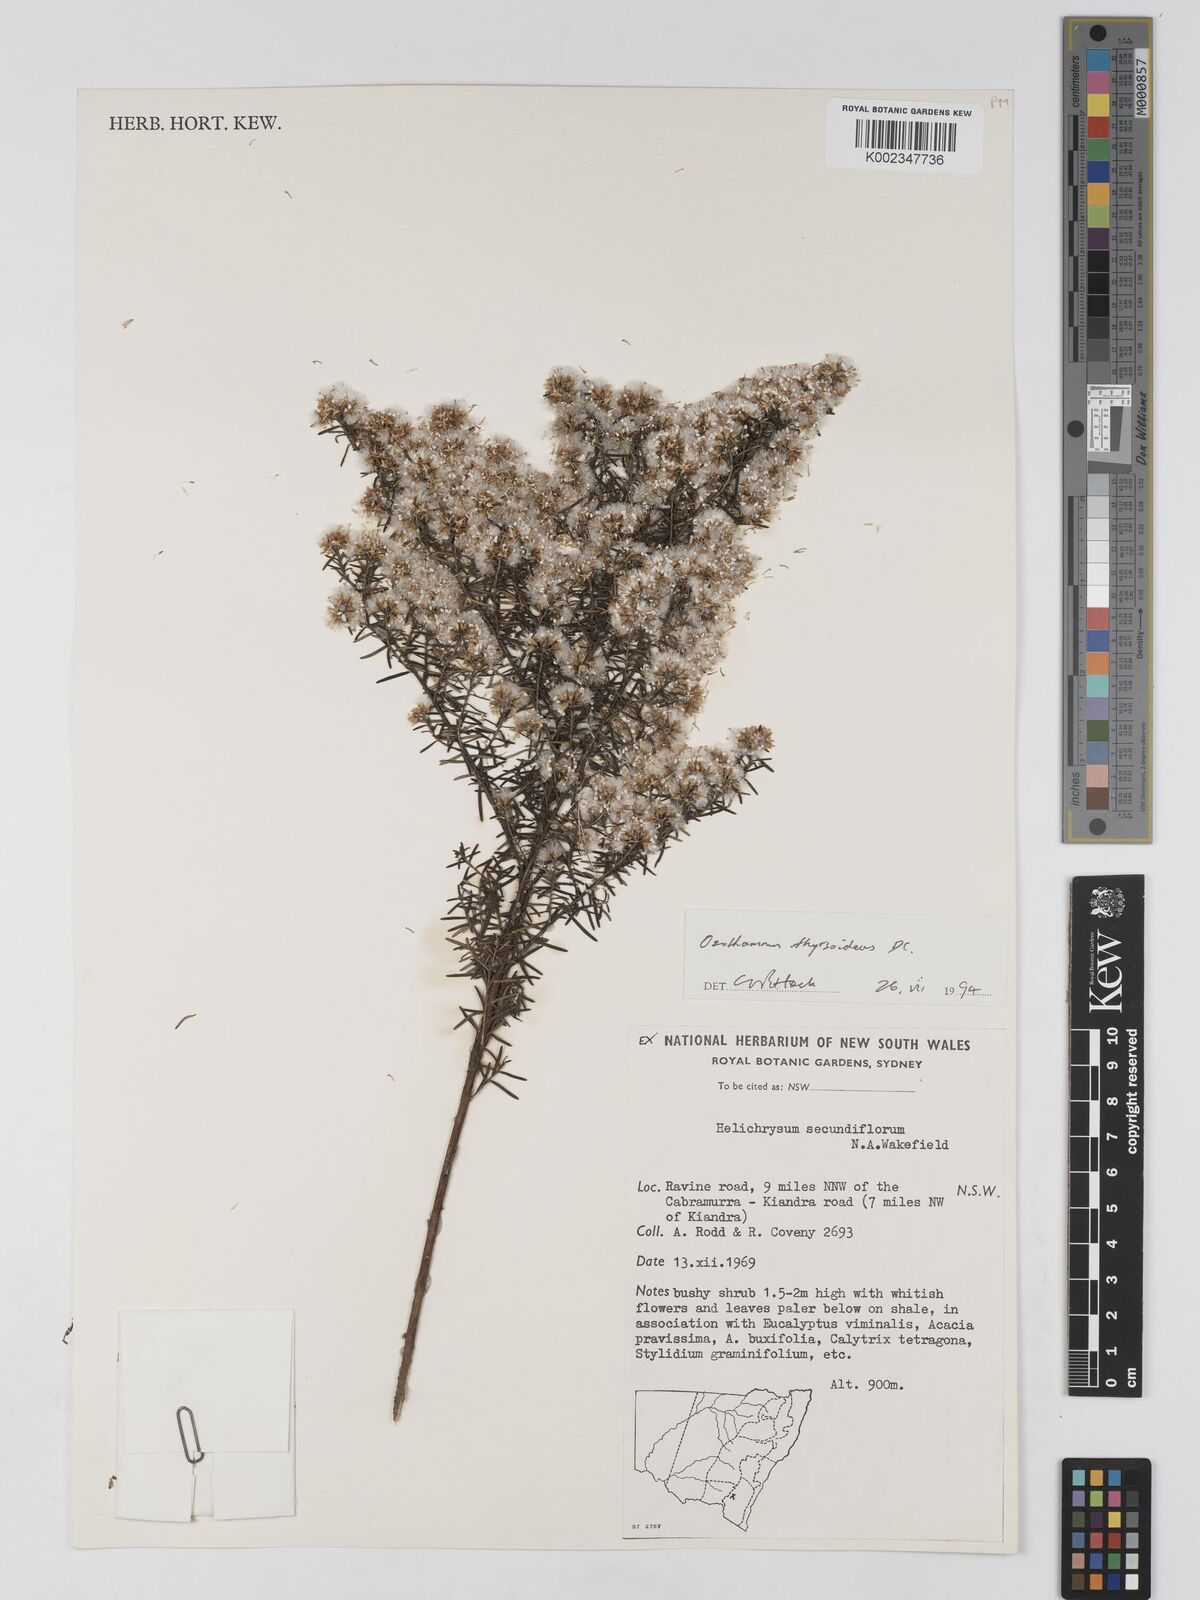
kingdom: Plantae
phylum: Tracheophyta
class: Magnoliopsida
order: Asterales
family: Asteraceae
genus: Ozothamnus
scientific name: Ozothamnus thyrsoideus
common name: Snow-in-summer
